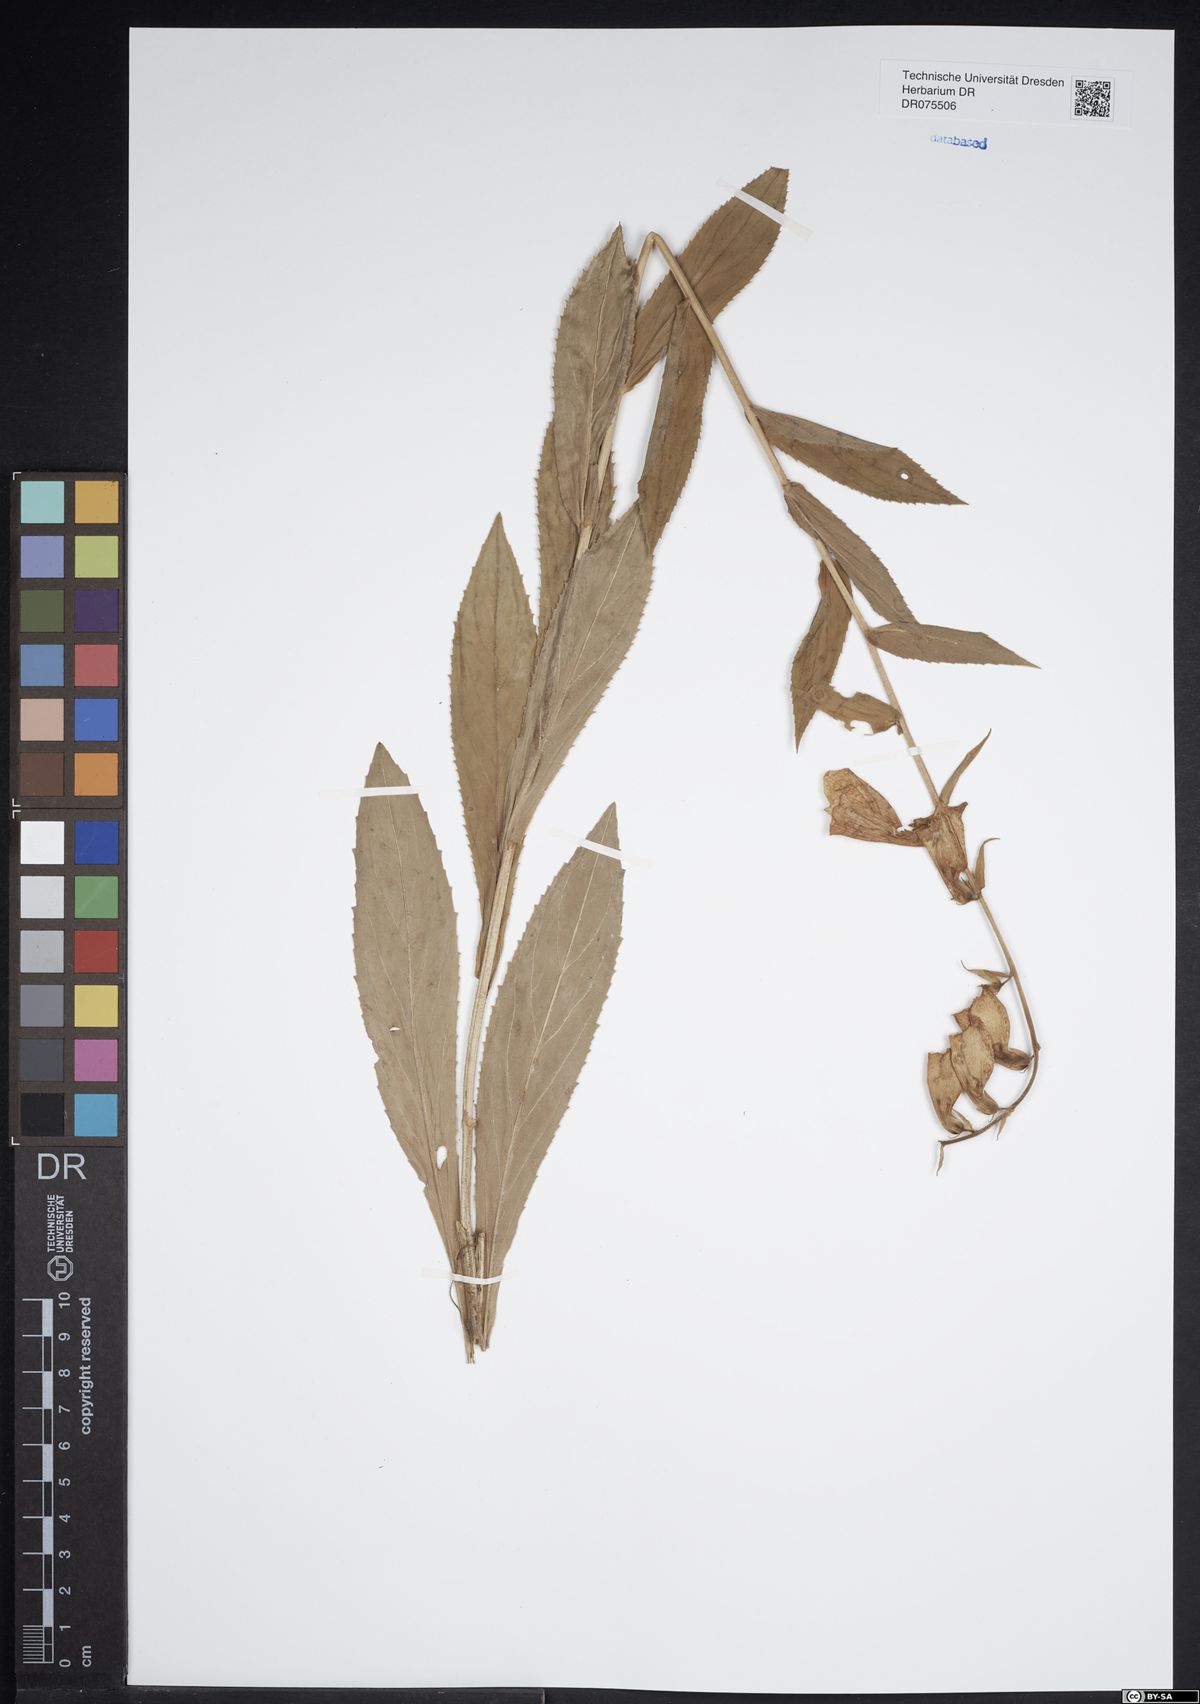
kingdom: Plantae
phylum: Tracheophyta
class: Magnoliopsida
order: Lamiales
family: Plantaginaceae
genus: Digitalis
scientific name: Digitalis grandiflora
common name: Yellow foxglove
